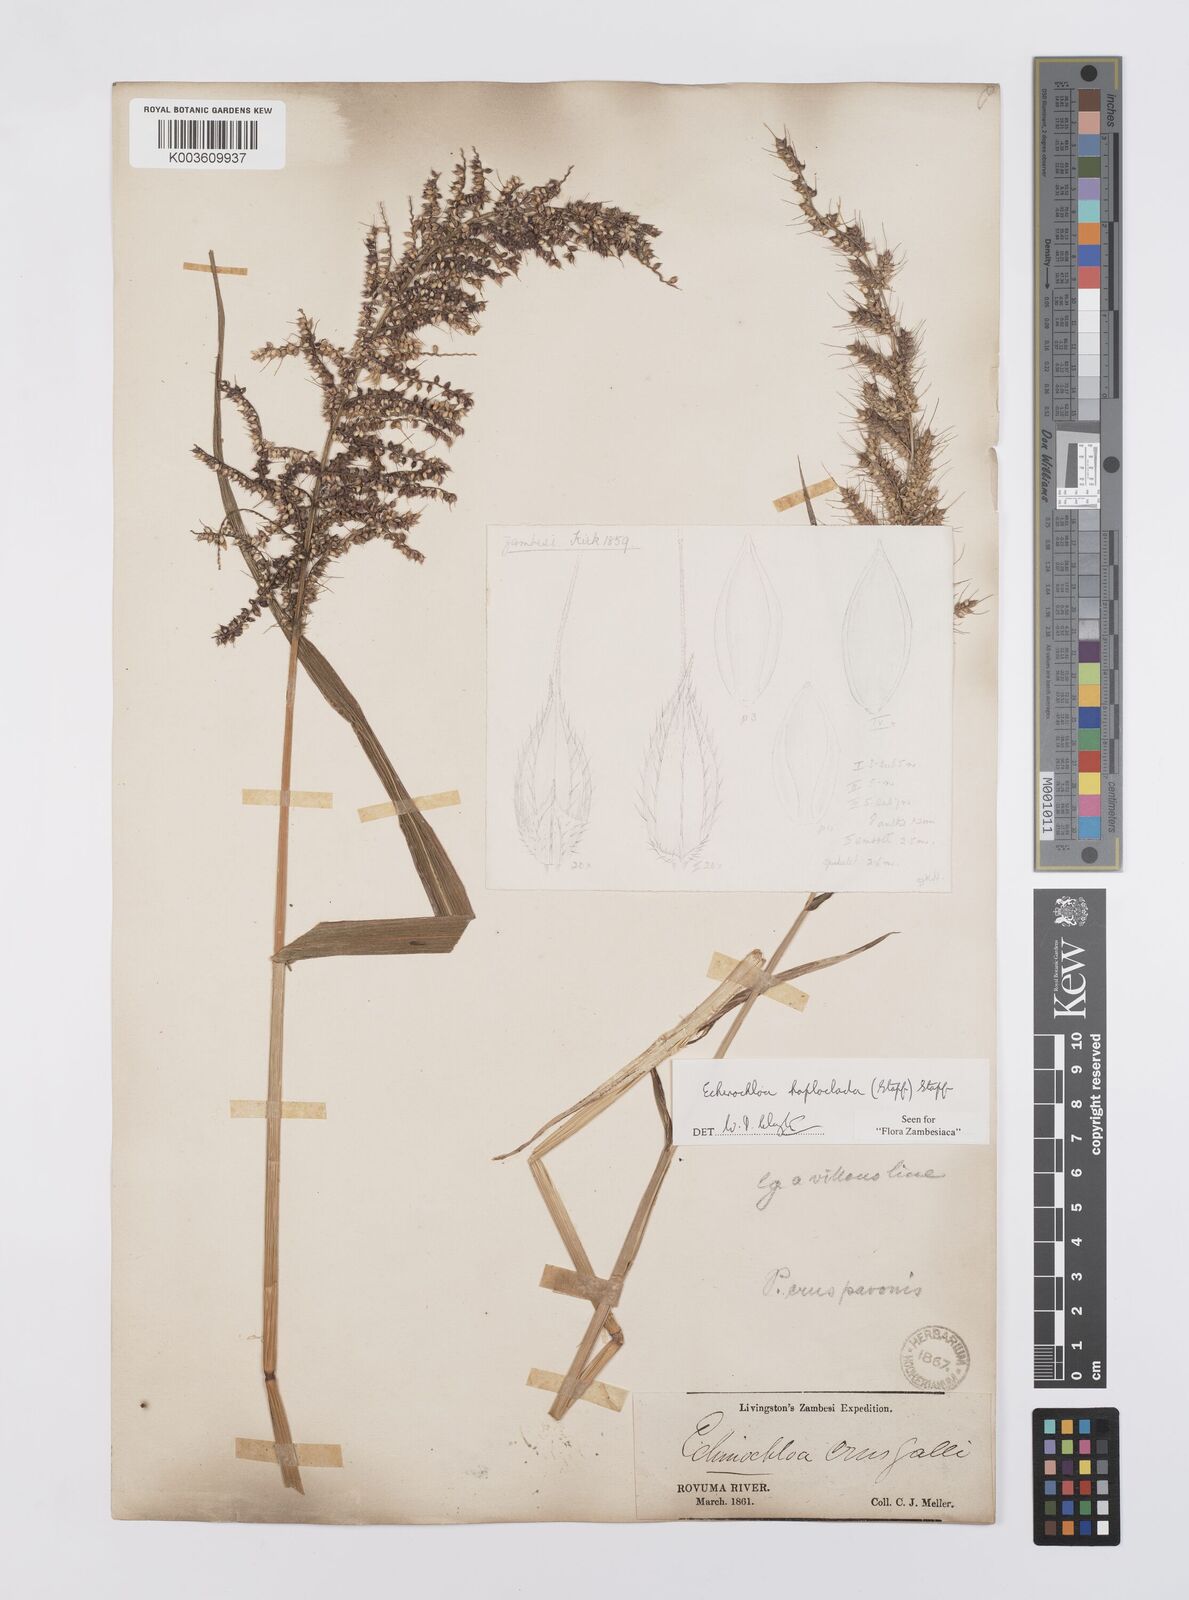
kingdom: Plantae
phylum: Tracheophyta
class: Liliopsida
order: Poales
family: Poaceae
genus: Echinochloa
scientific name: Echinochloa haploclada
